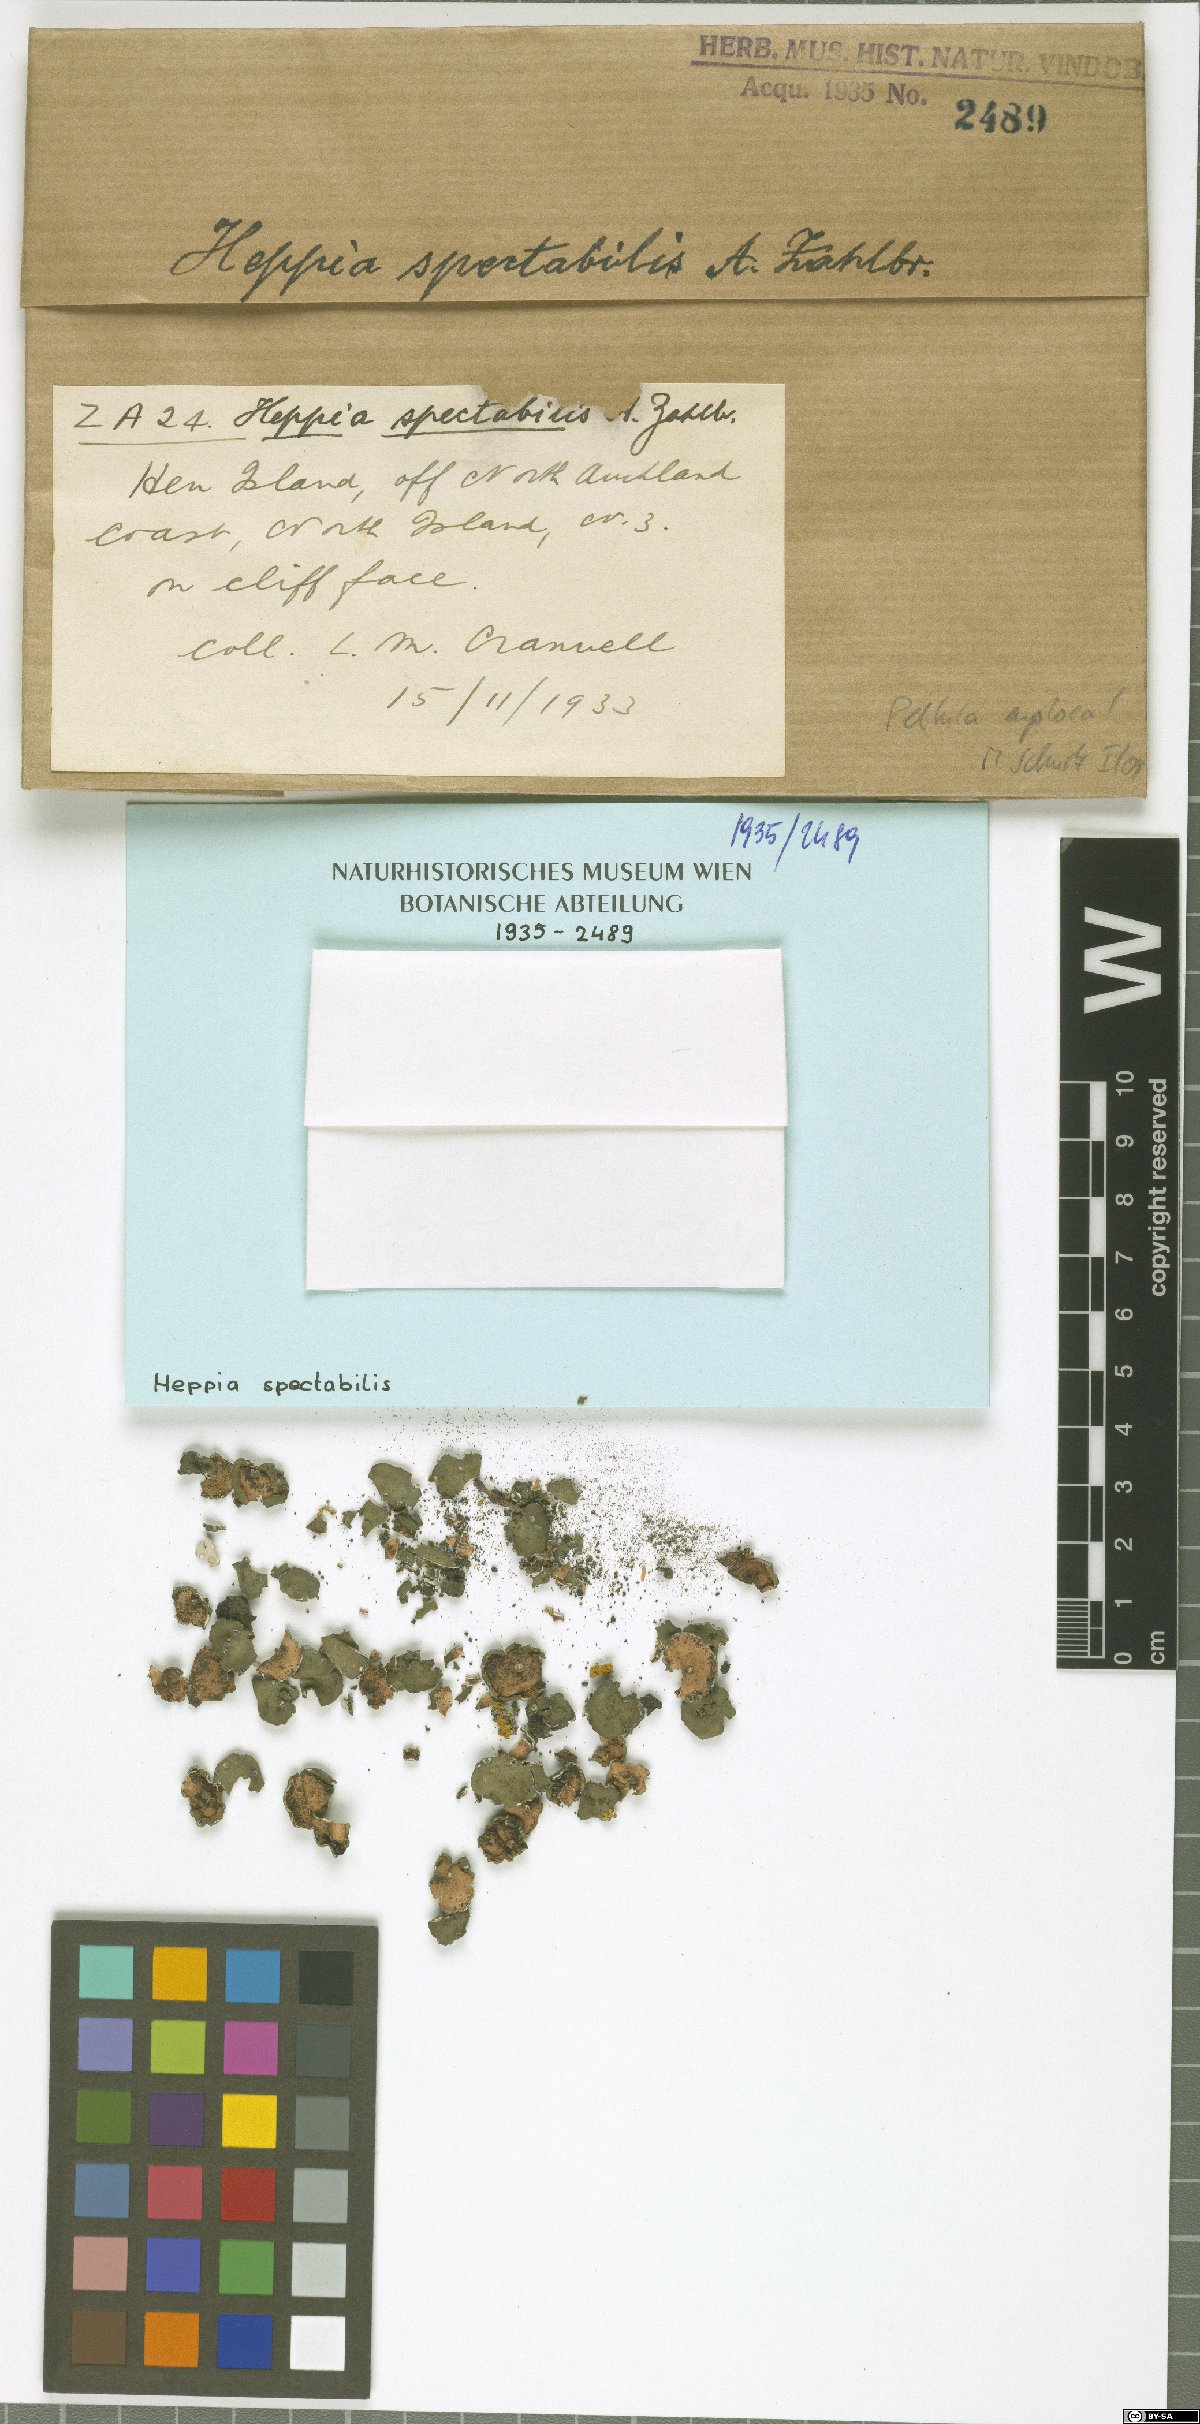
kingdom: Fungi
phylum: Ascomycota
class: Lichinomycetes
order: Lichinales
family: Lichinaceae
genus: Heppia
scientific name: Heppia
